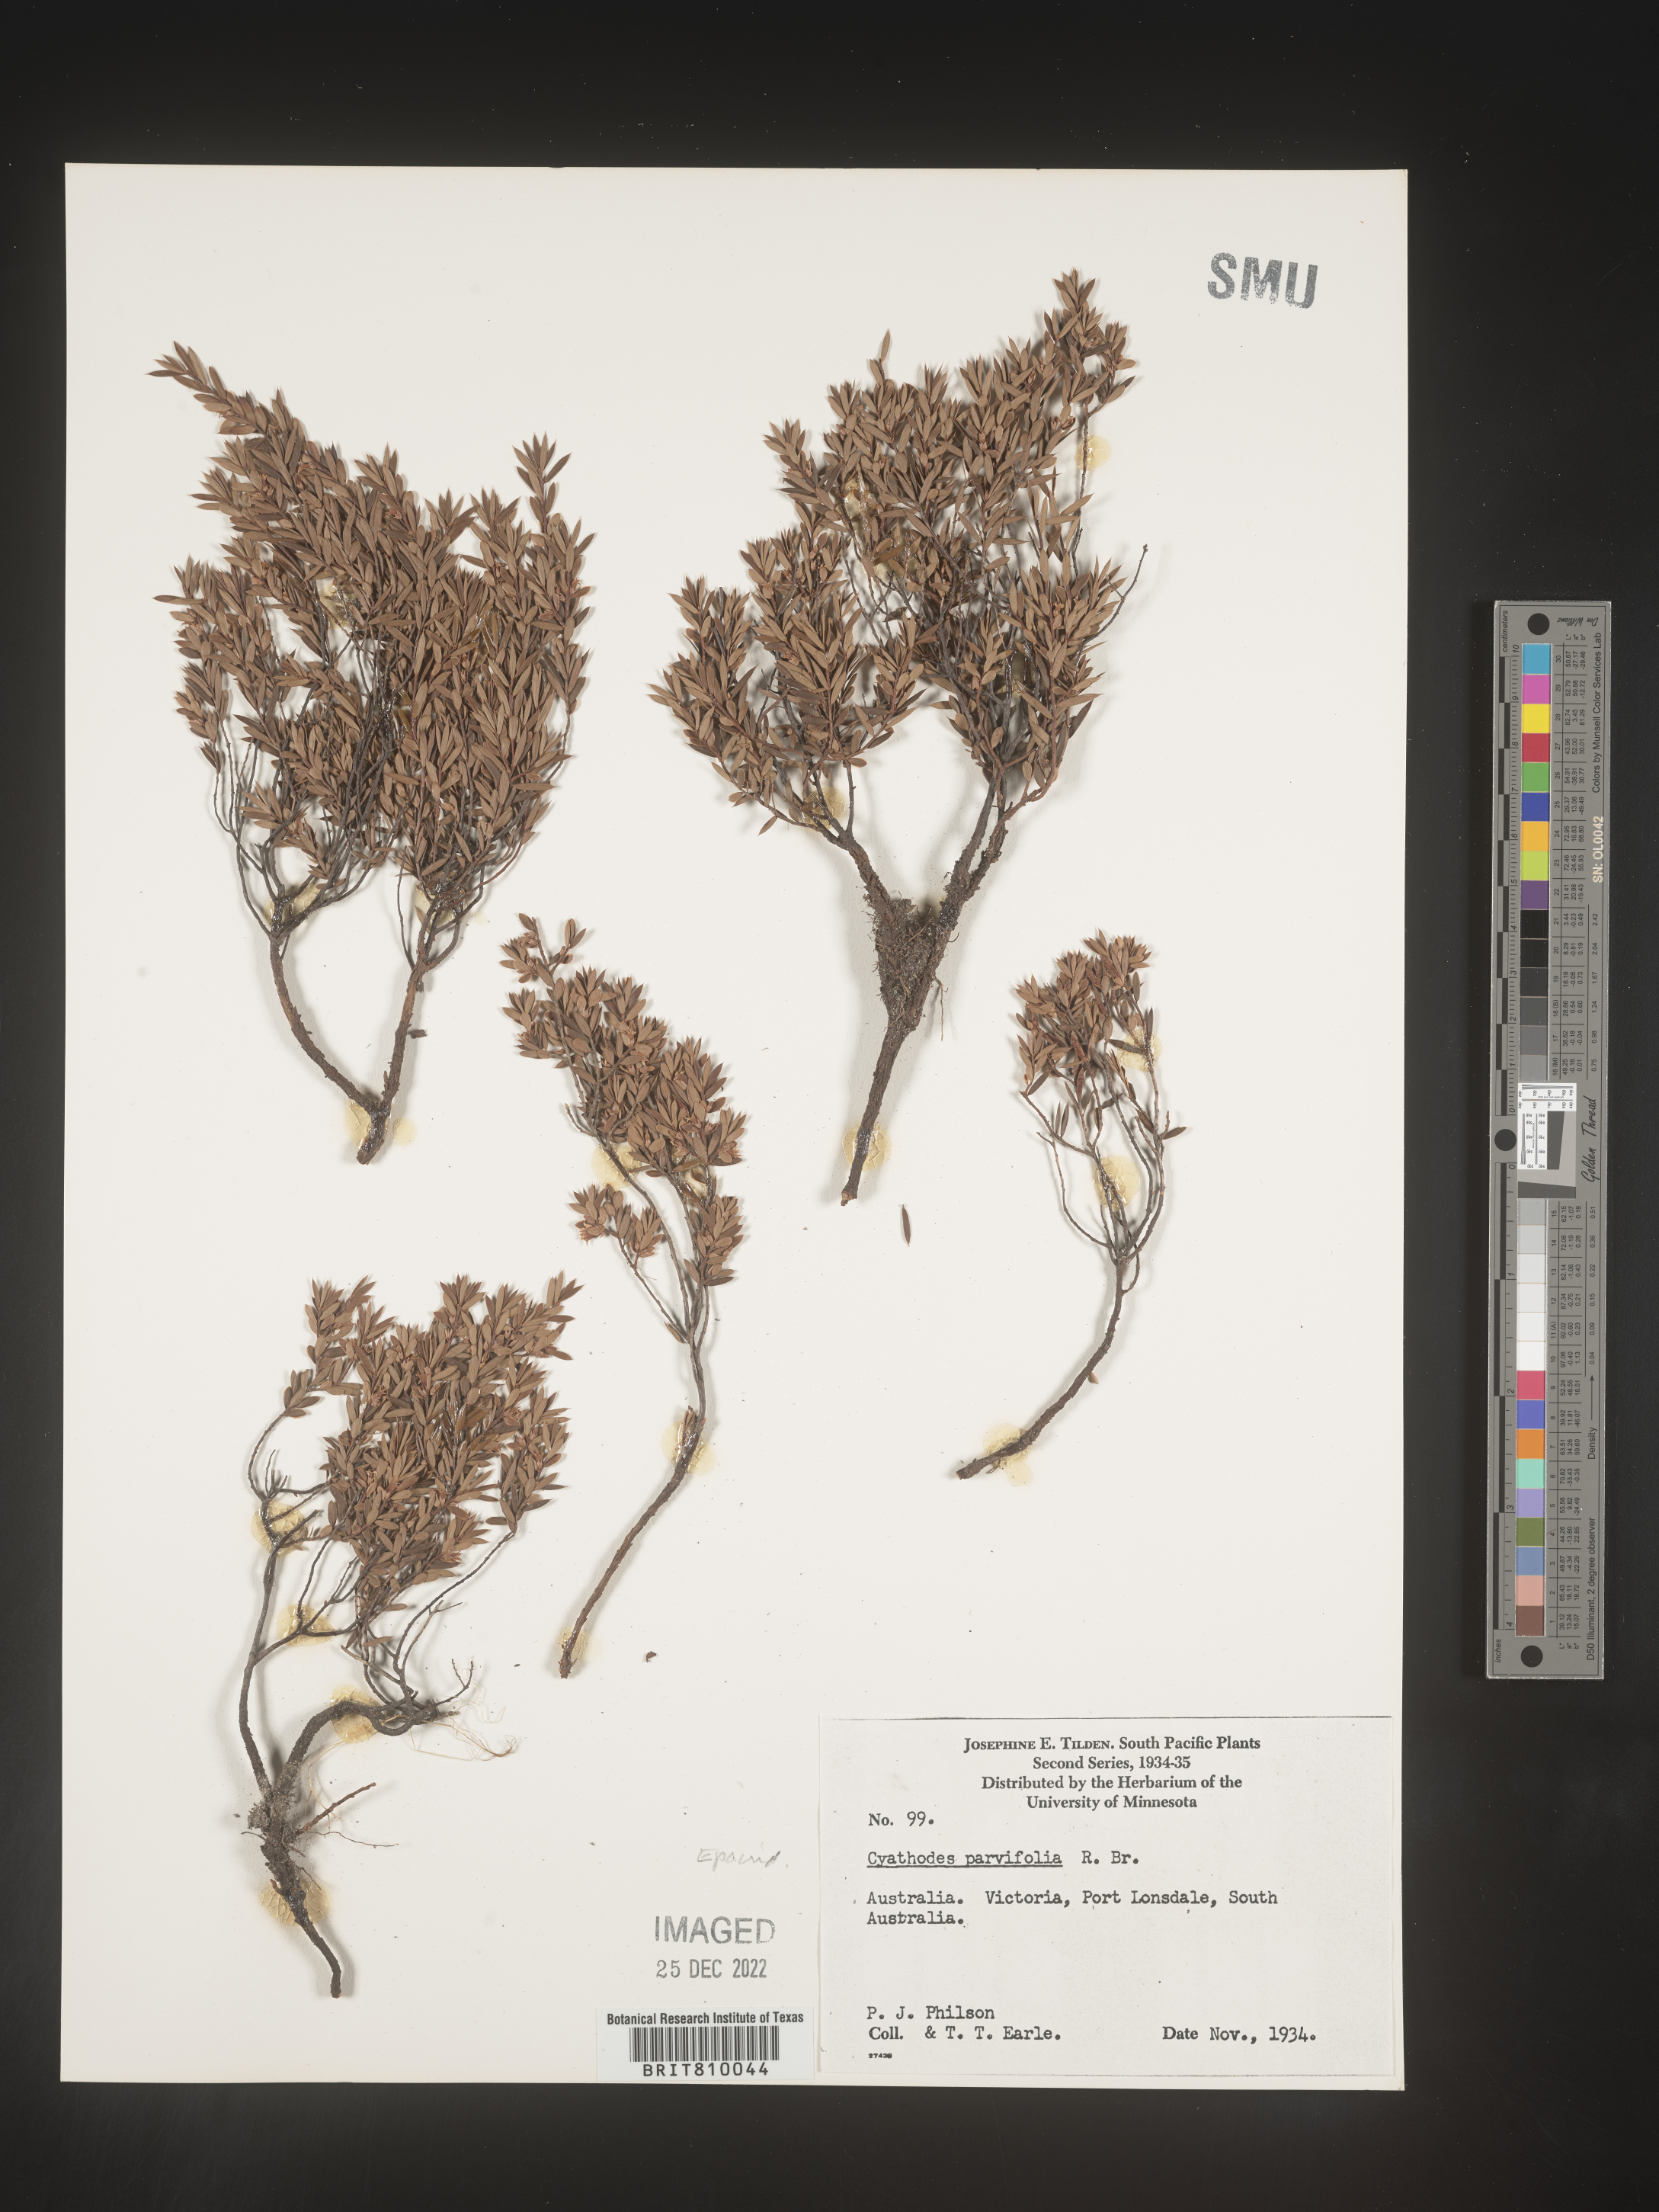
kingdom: Plantae
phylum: Tracheophyta
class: Magnoliopsida
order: Ericales
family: Ericaceae
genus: Cyathodes
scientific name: Cyathodes
